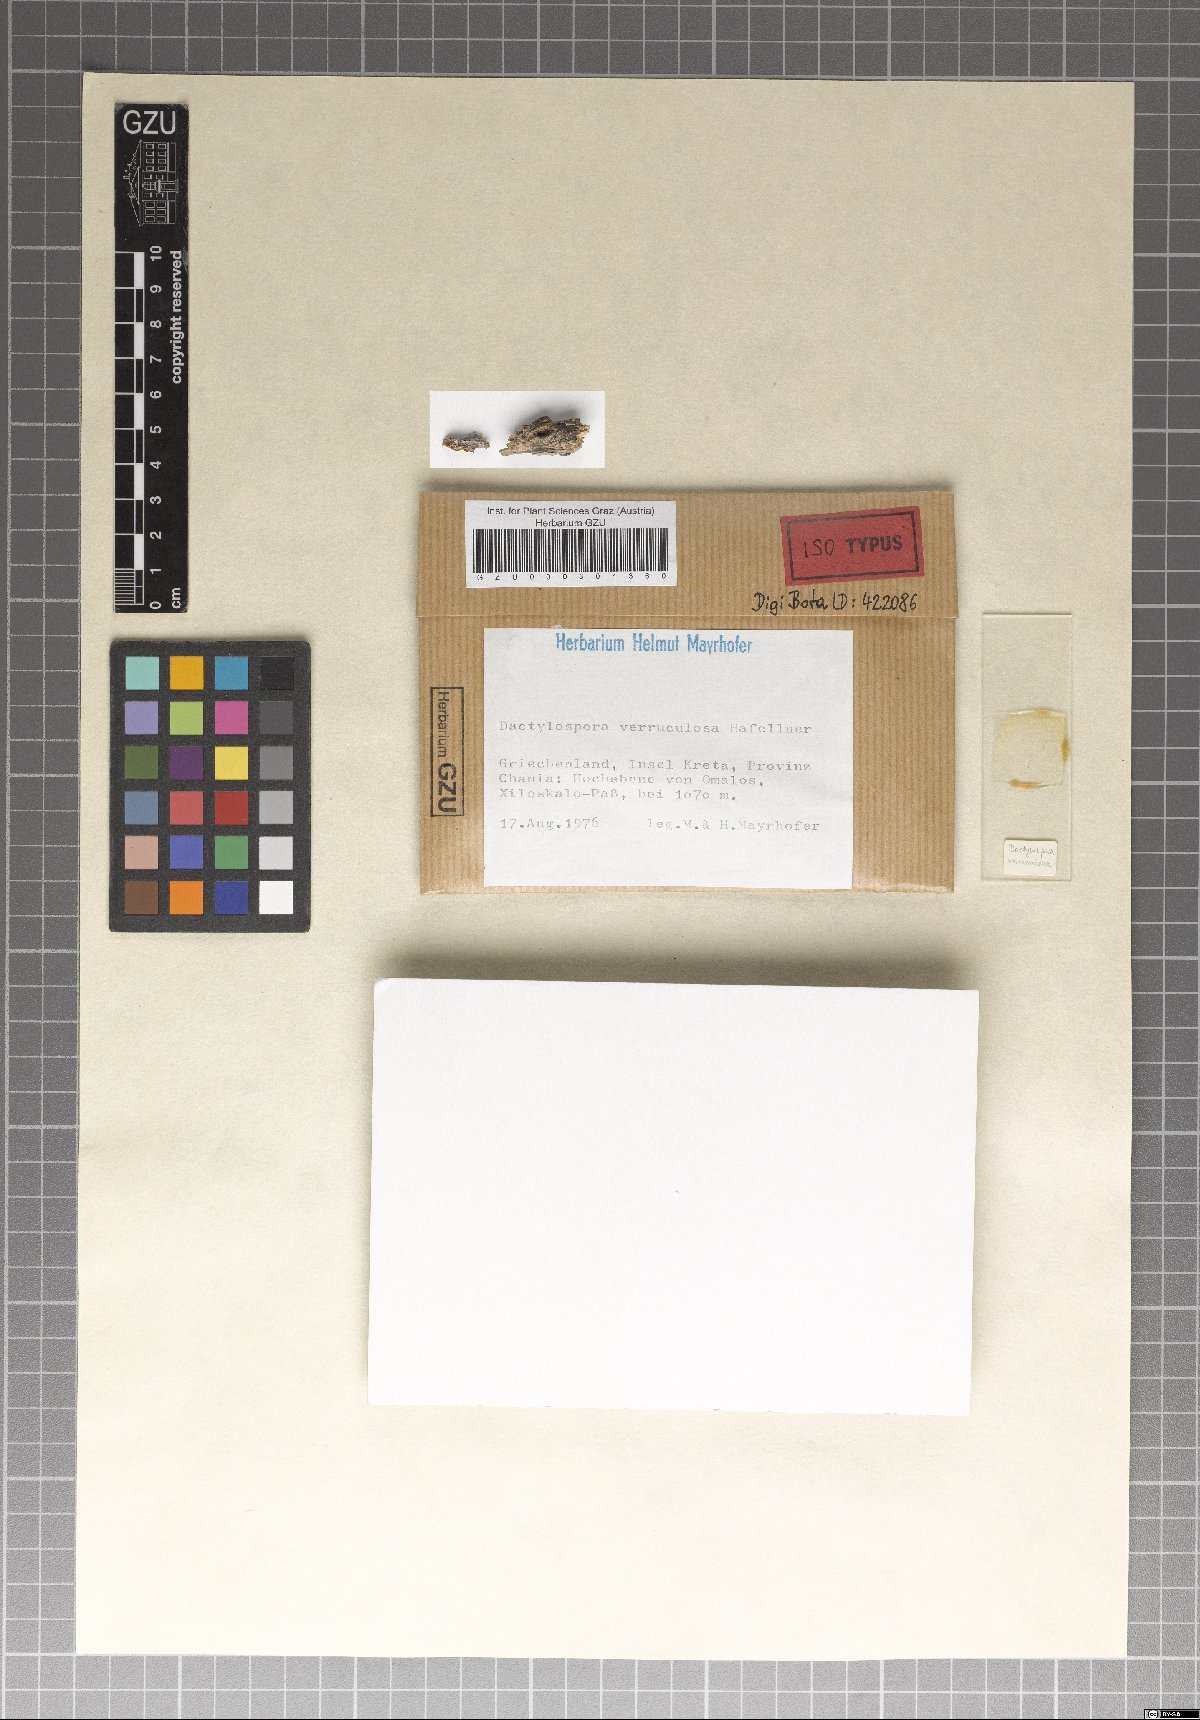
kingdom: Fungi
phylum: Ascomycota
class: Eurotiomycetes
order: Sclerococcales
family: Sclerococcaceae
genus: Sclerococcum
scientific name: Sclerococcum verruculosum
